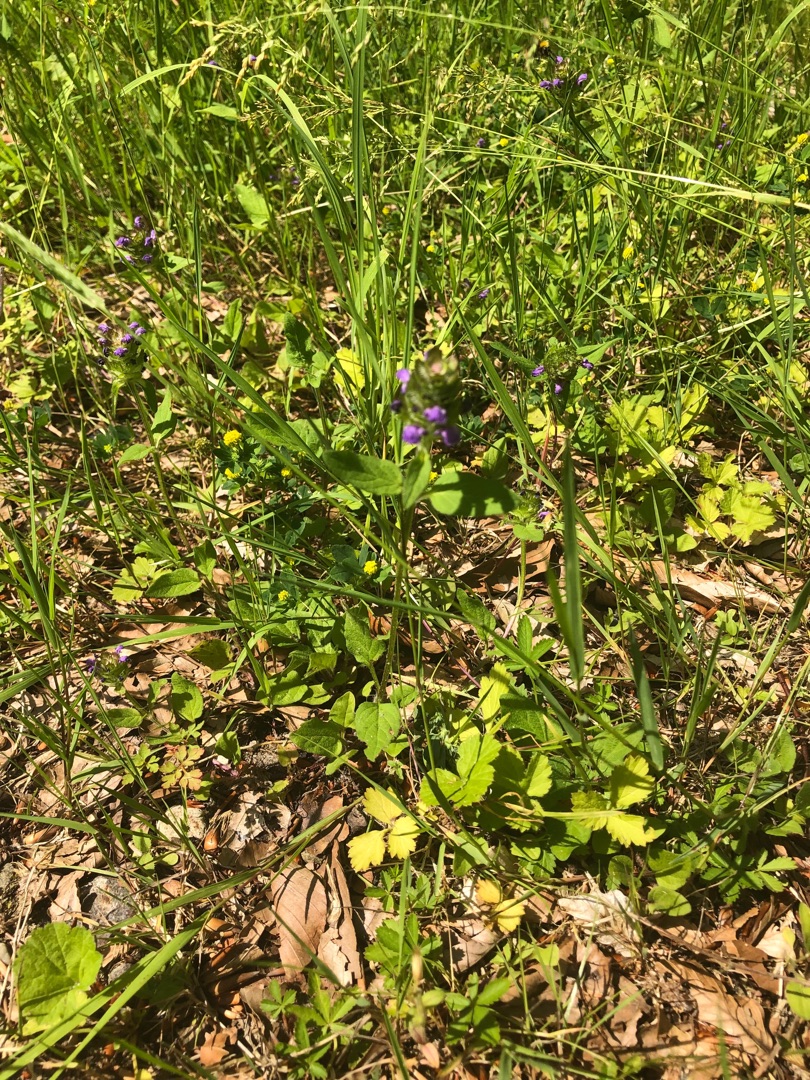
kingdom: Plantae
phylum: Tracheophyta
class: Magnoliopsida
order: Lamiales
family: Lamiaceae
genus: Prunella
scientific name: Prunella vulgaris
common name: Almindelig brunelle
